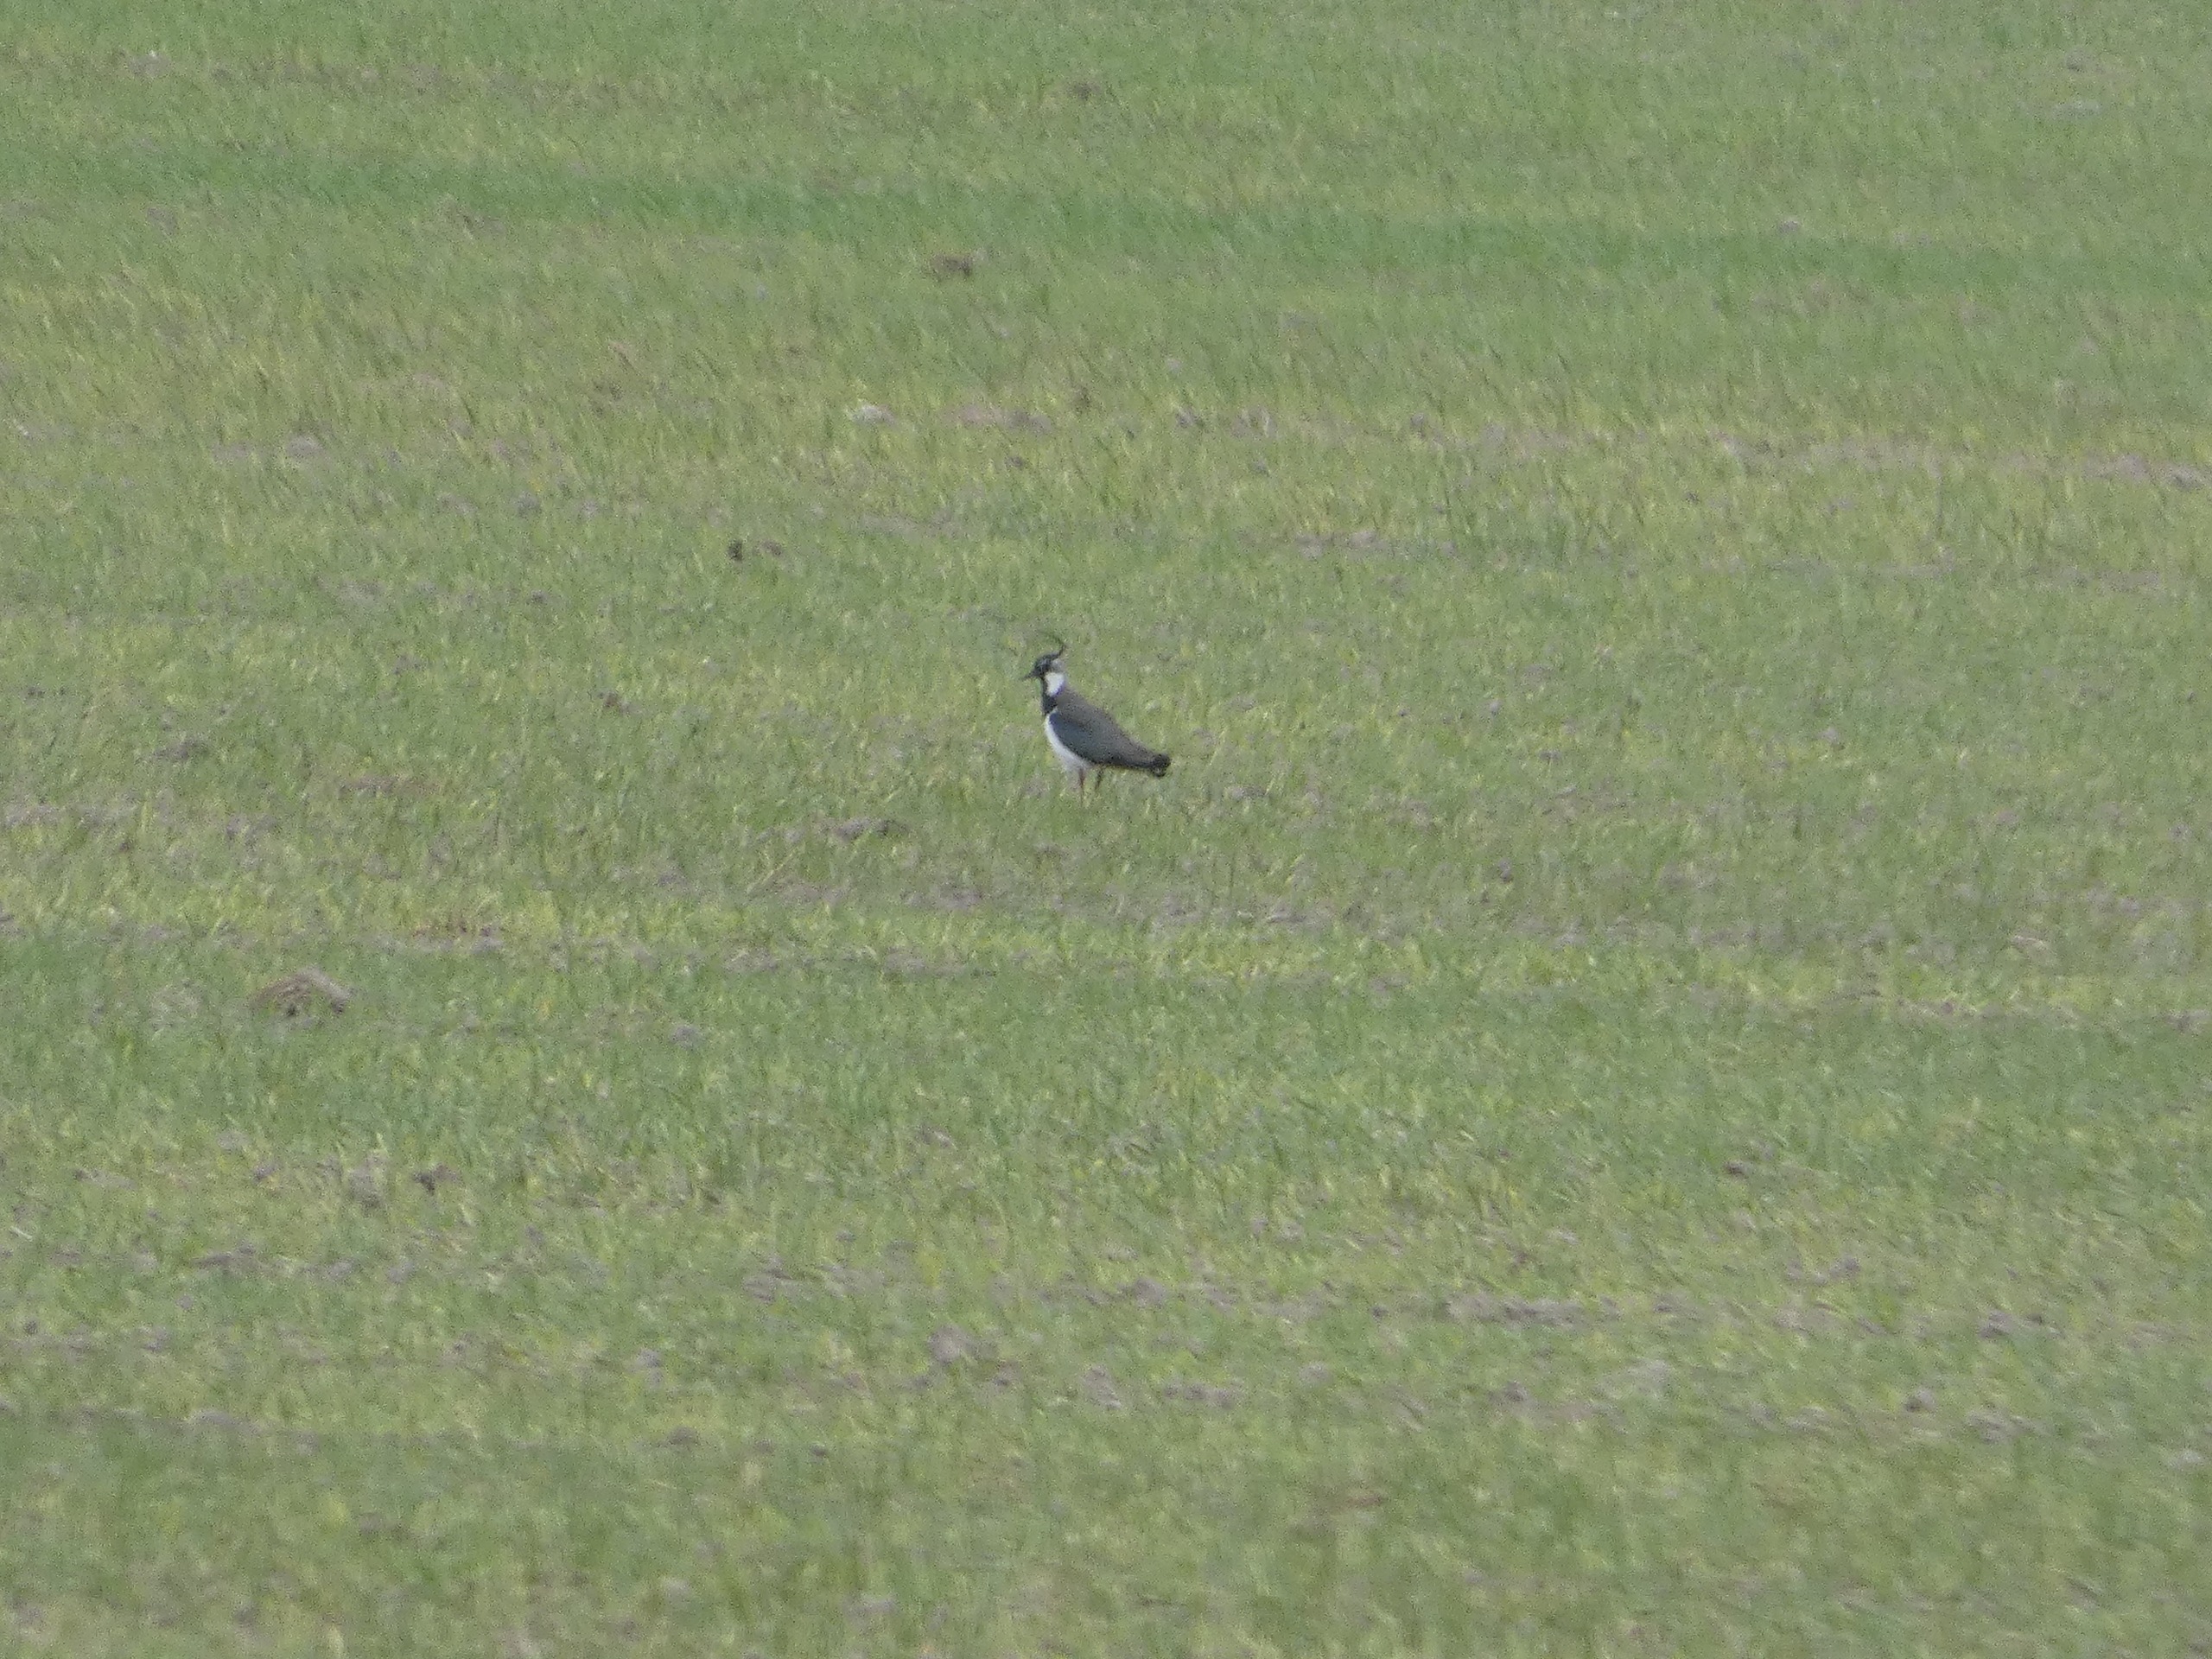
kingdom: Animalia
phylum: Chordata
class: Aves
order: Charadriiformes
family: Charadriidae
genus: Vanellus
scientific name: Vanellus vanellus
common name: Vibe
